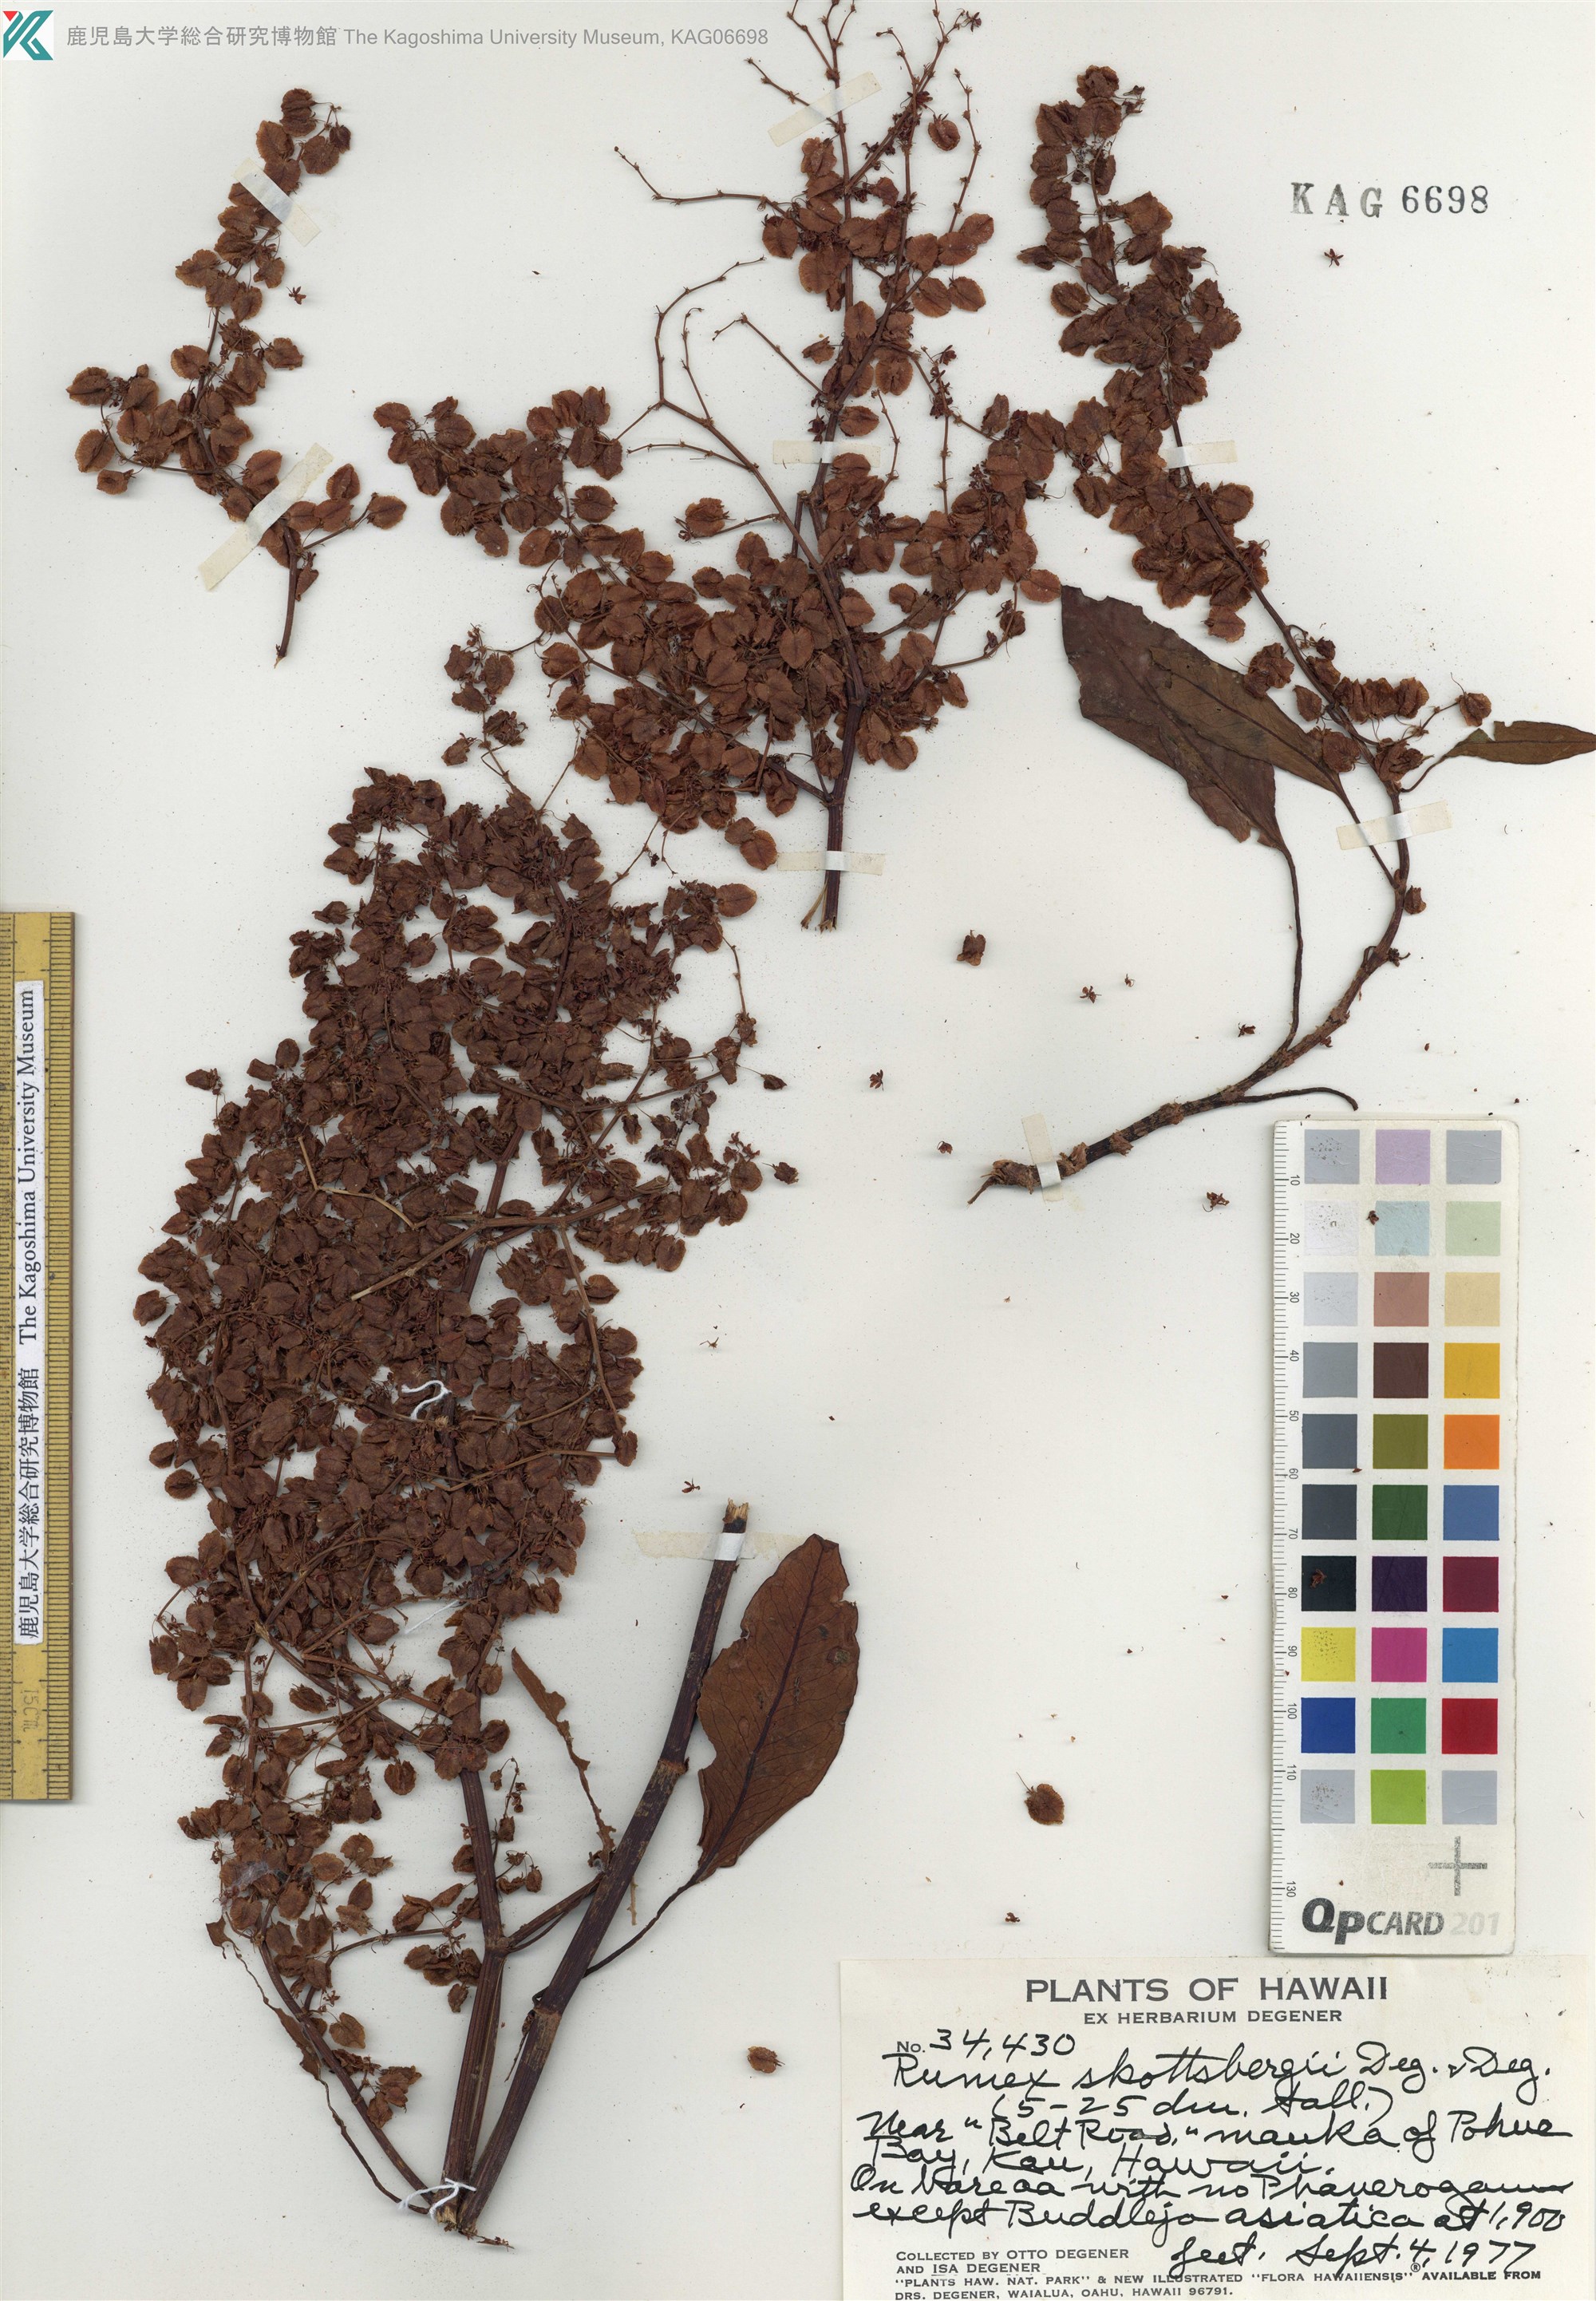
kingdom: Plantae
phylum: Tracheophyta
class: Magnoliopsida
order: Caryophyllales
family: Polygonaceae
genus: Rumex
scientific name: Rumex skottsbergii
